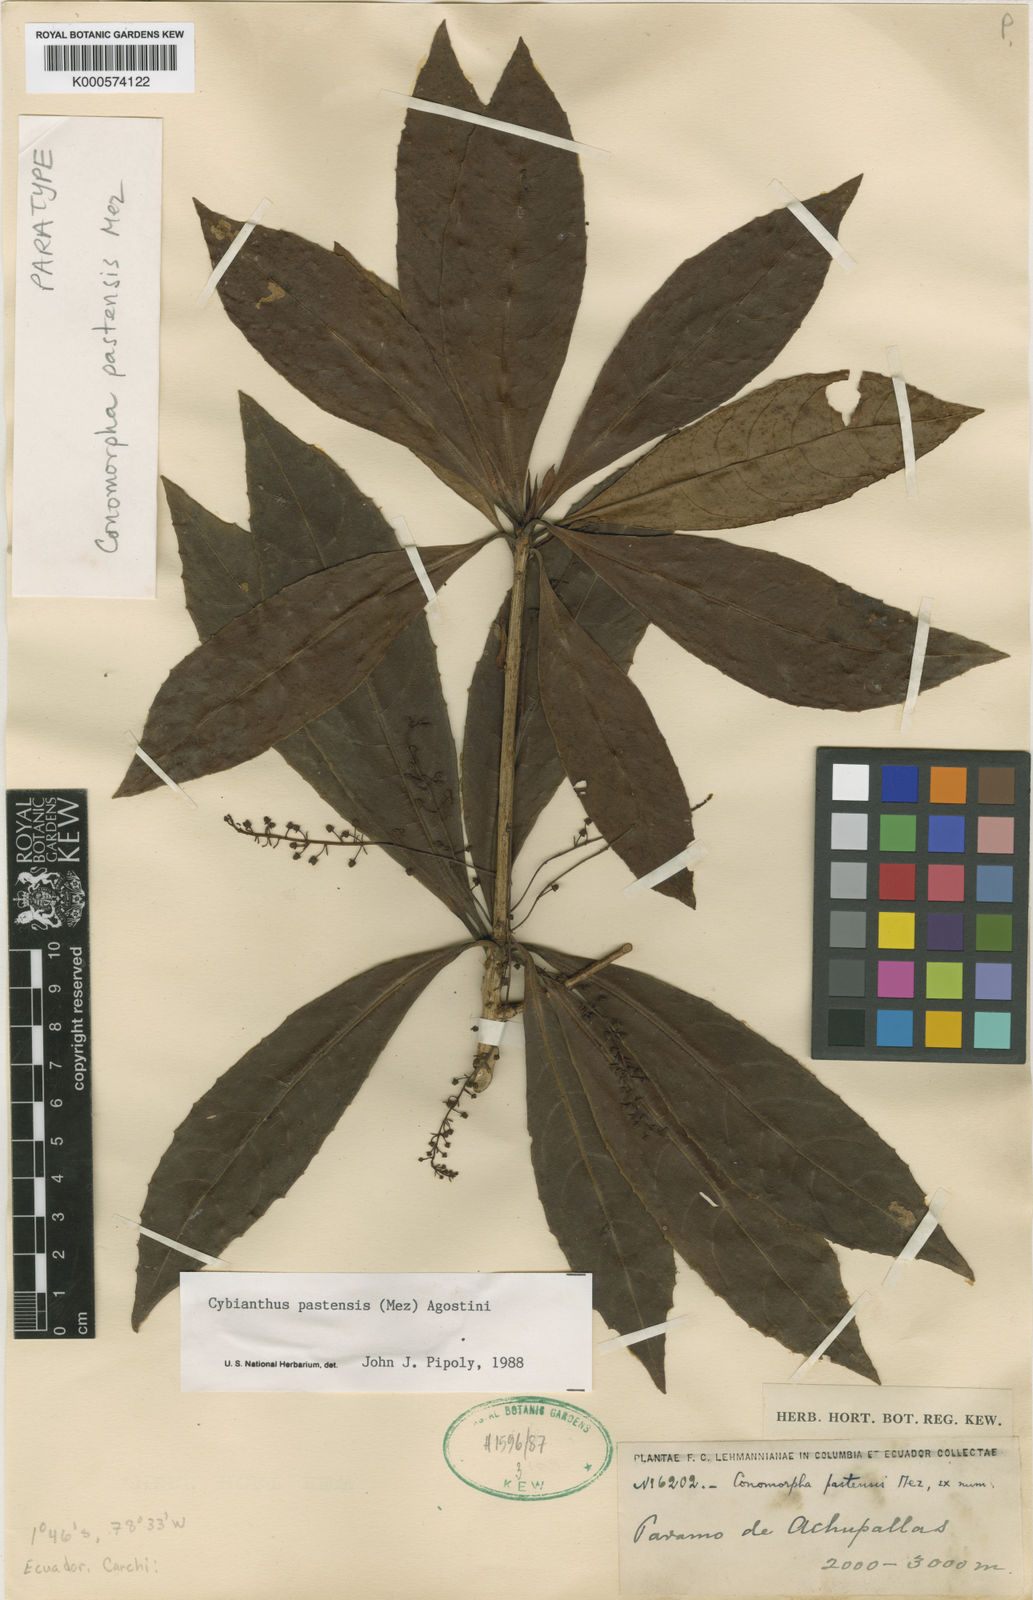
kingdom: Plantae
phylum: Tracheophyta
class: Magnoliopsida
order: Ericales
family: Primulaceae
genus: Cybianthus
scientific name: Cybianthus pastensis
